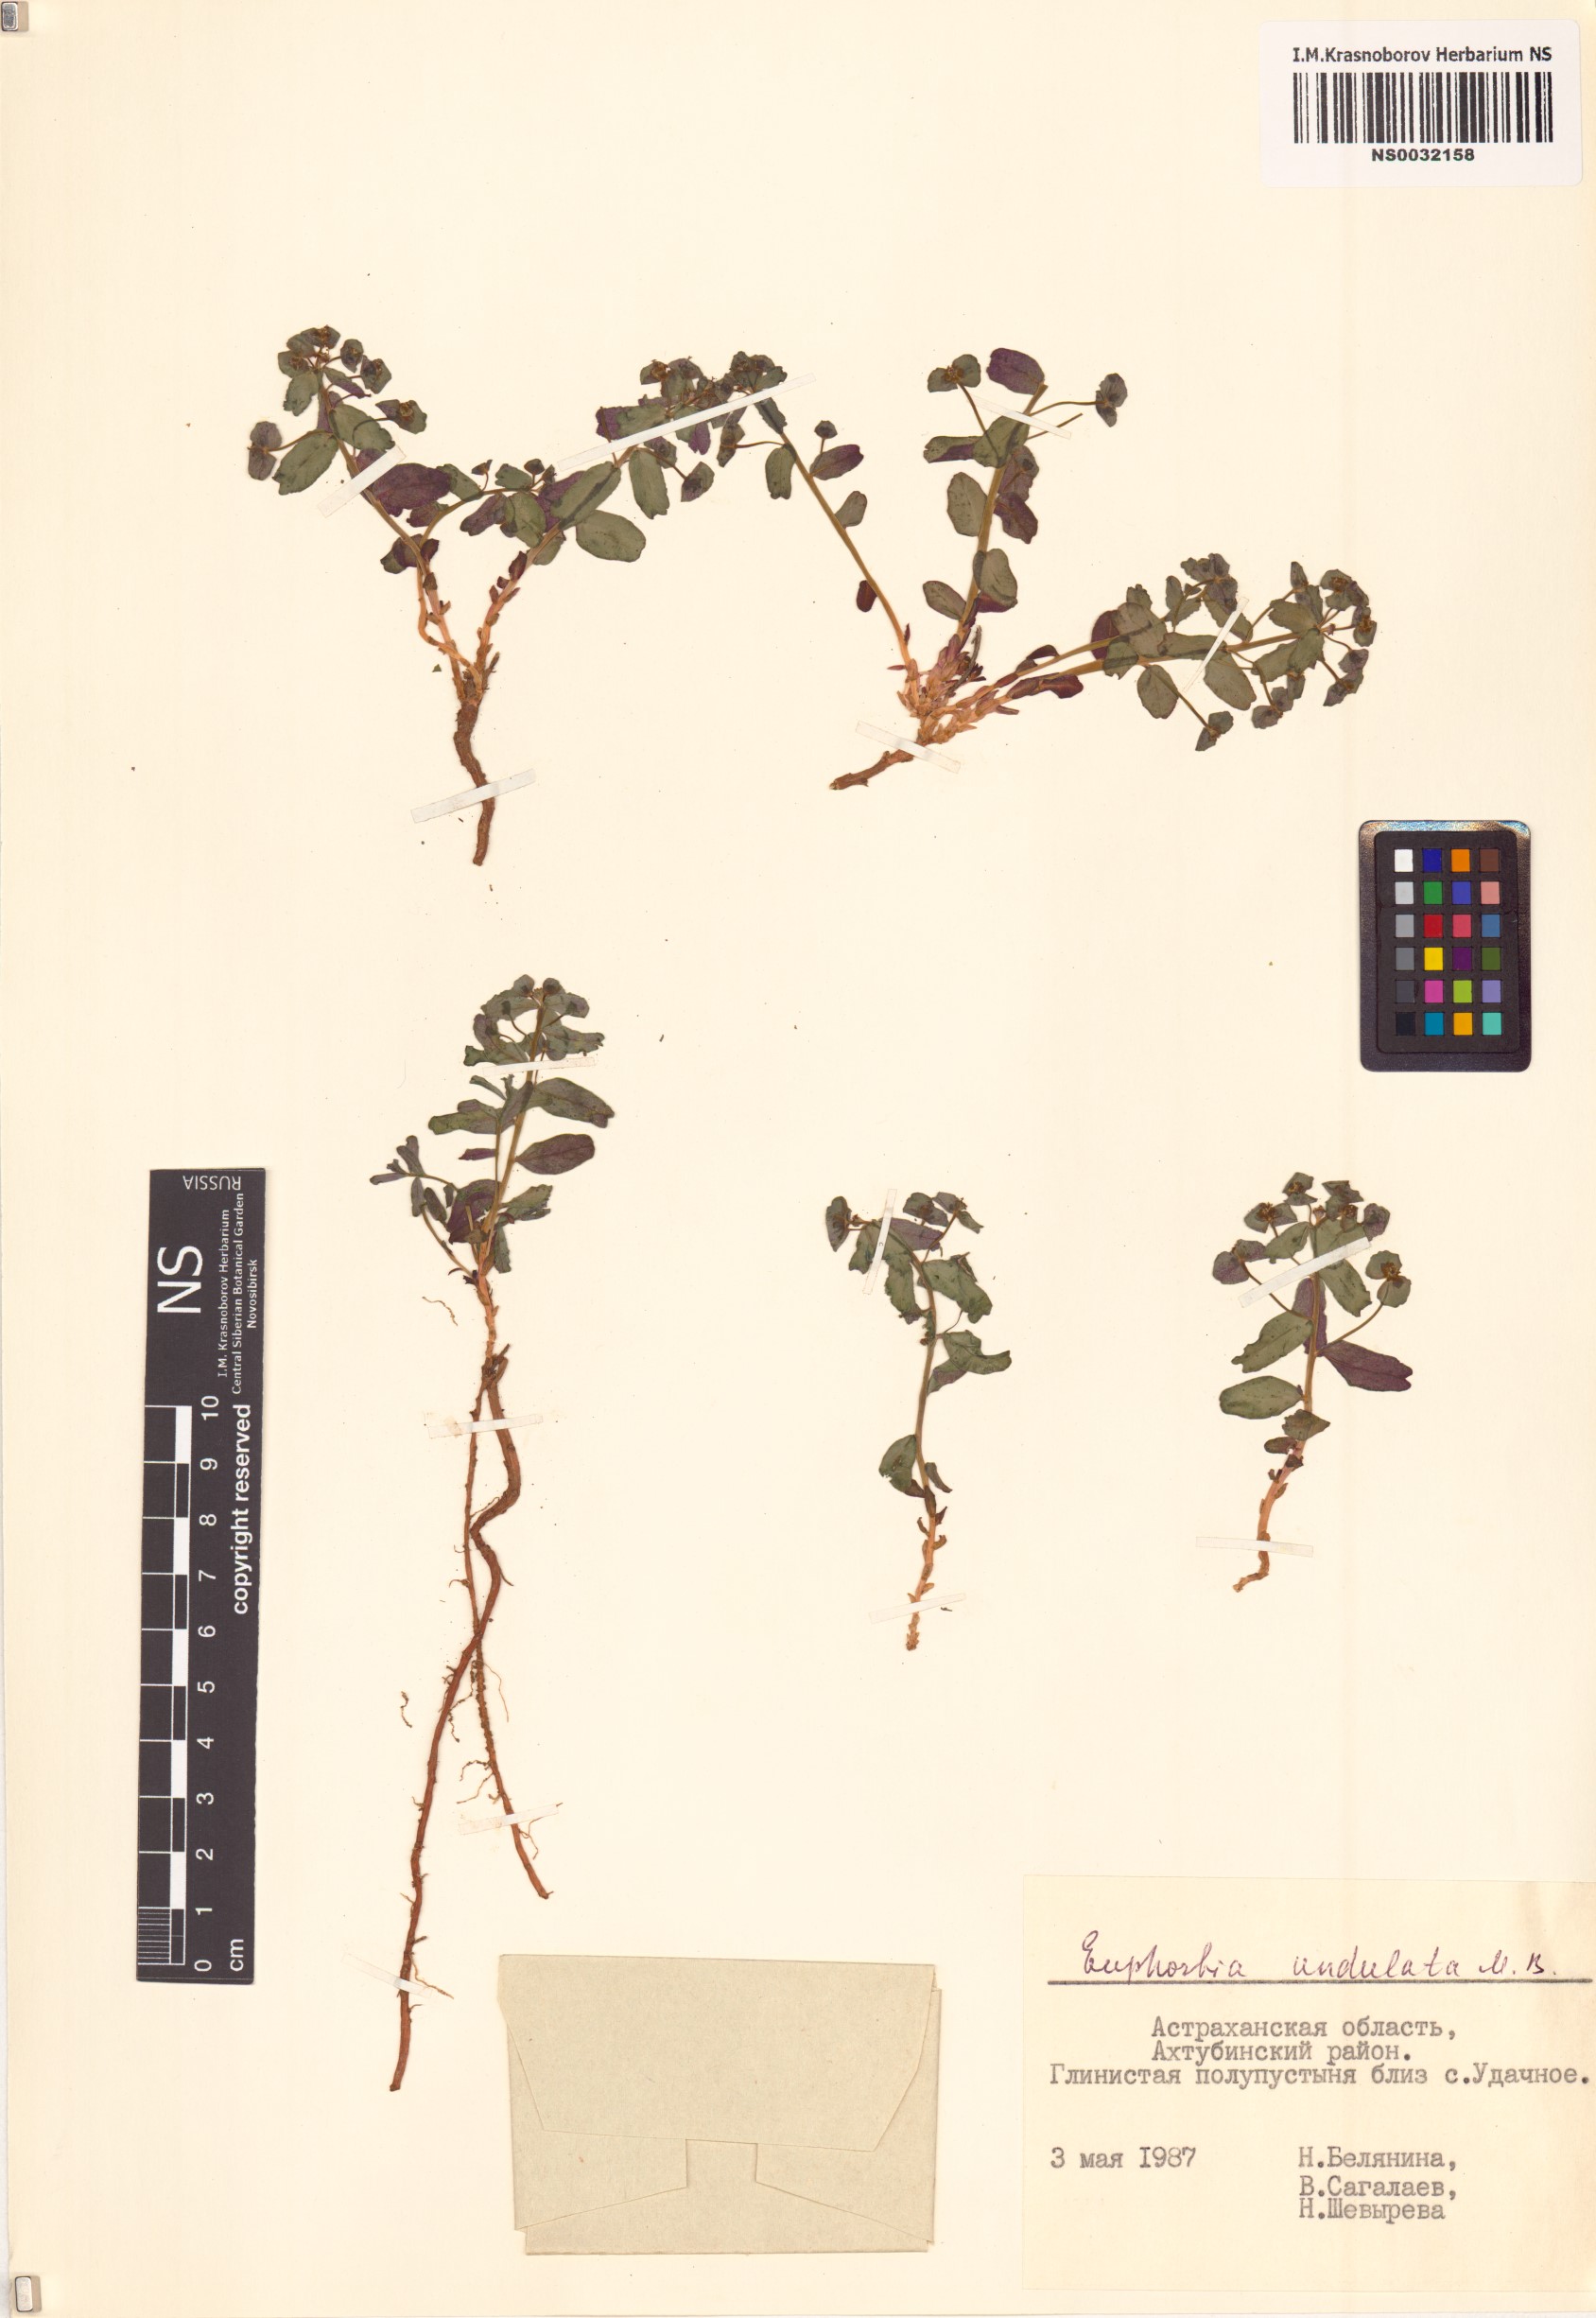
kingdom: Plantae
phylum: Tracheophyta
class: Magnoliopsida
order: Malpighiales
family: Euphorbiaceae
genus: Euphorbia
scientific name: Euphorbia undulata
